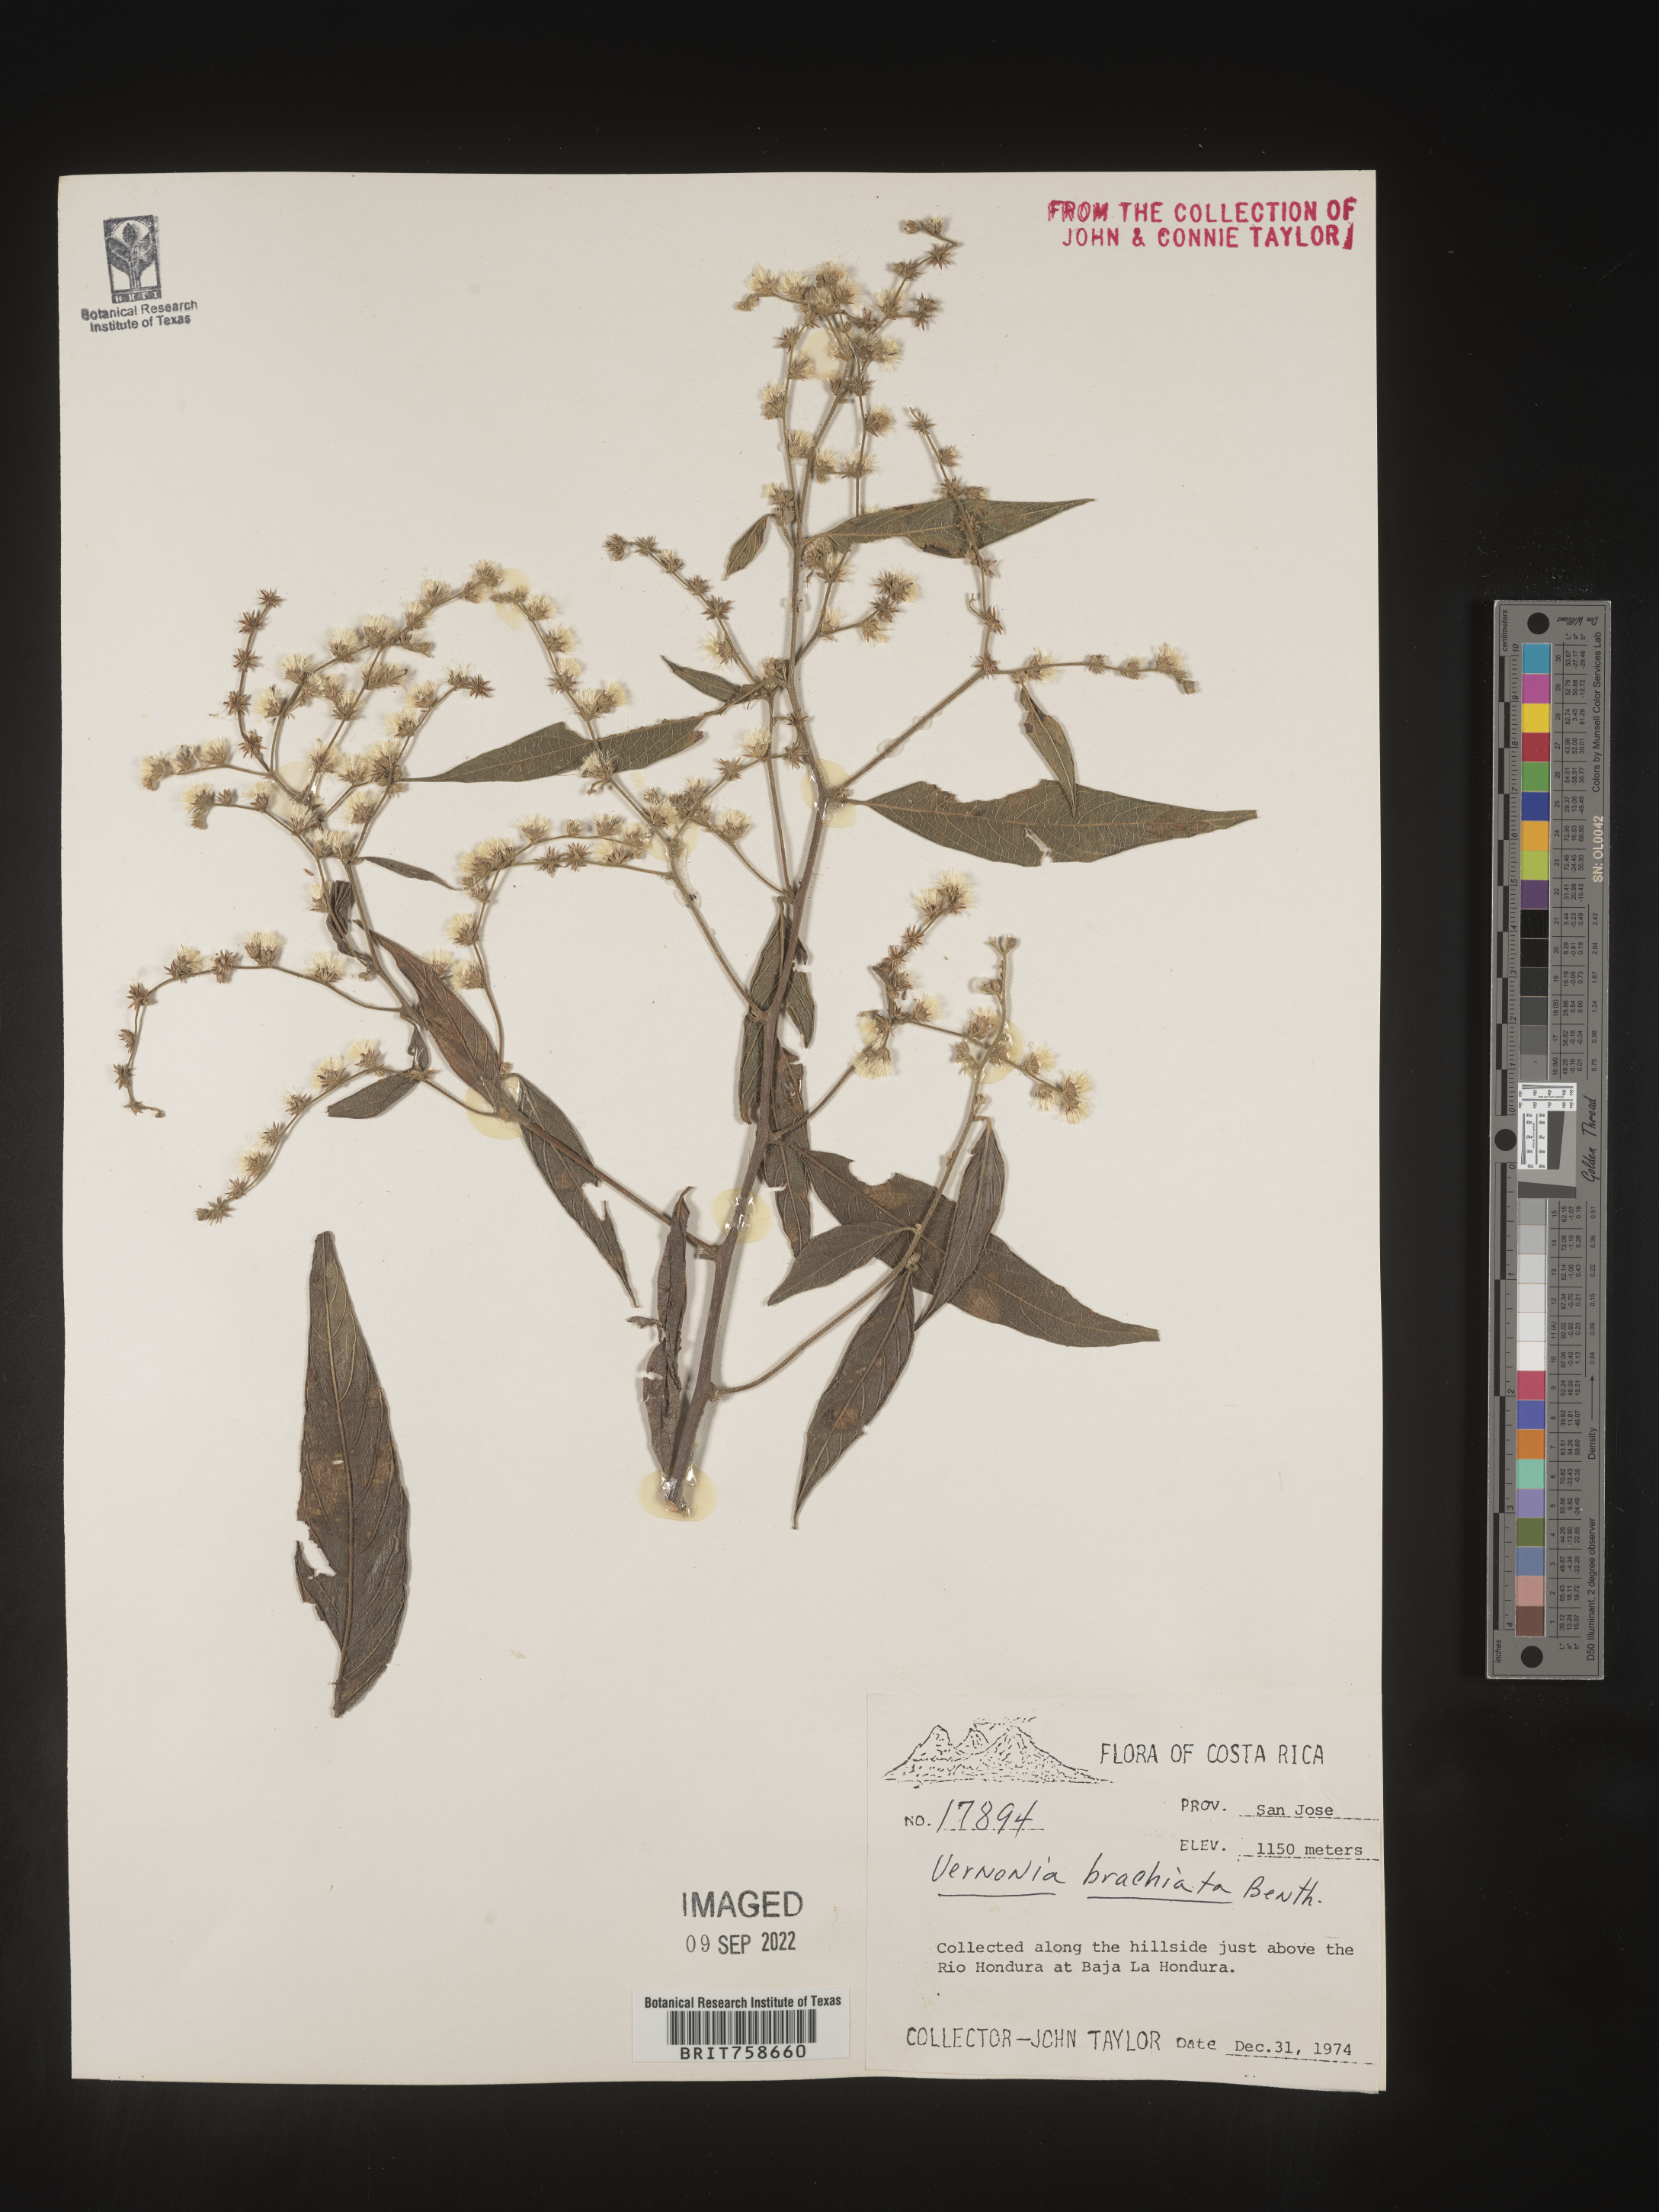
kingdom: Plantae
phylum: Tracheophyta
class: Magnoliopsida
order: Asterales
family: Asteraceae
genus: Vernonia
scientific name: Vernonia
